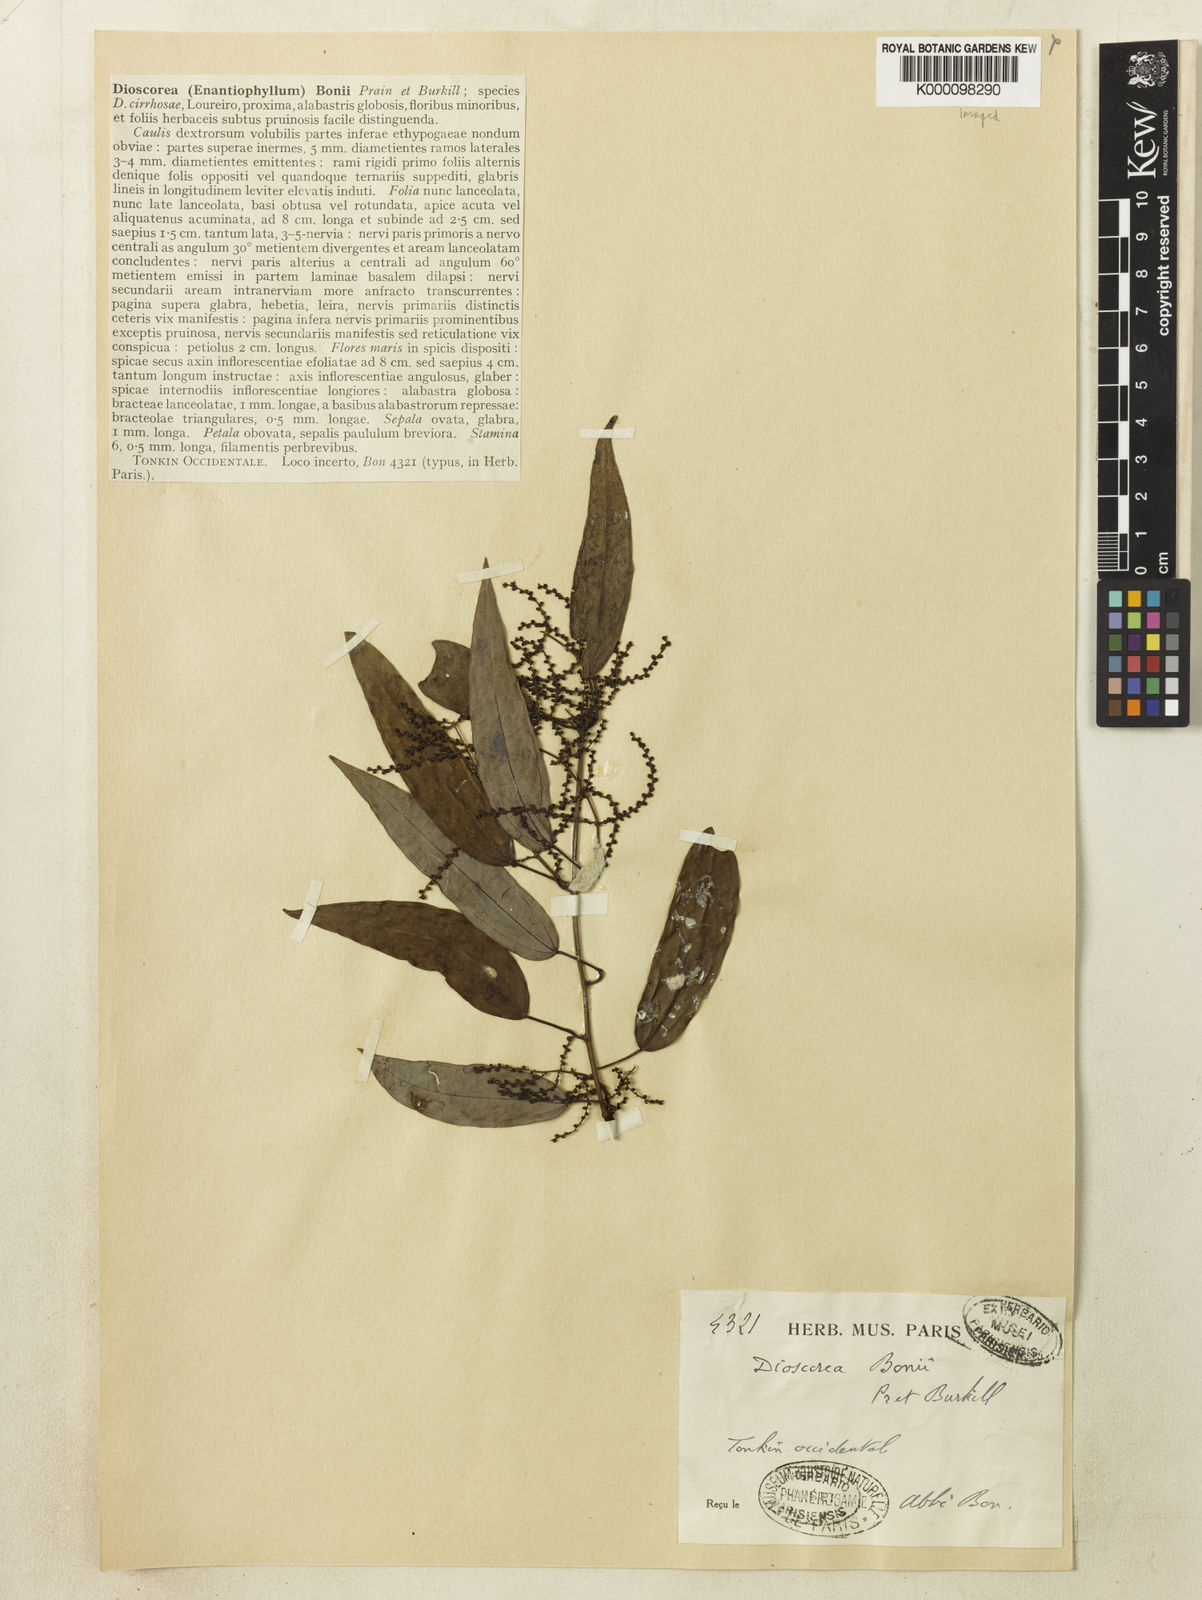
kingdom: Plantae
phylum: Tracheophyta
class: Liliopsida
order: Dioscoreales
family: Dioscoreaceae
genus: Dioscorea
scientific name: Dioscorea bonii
